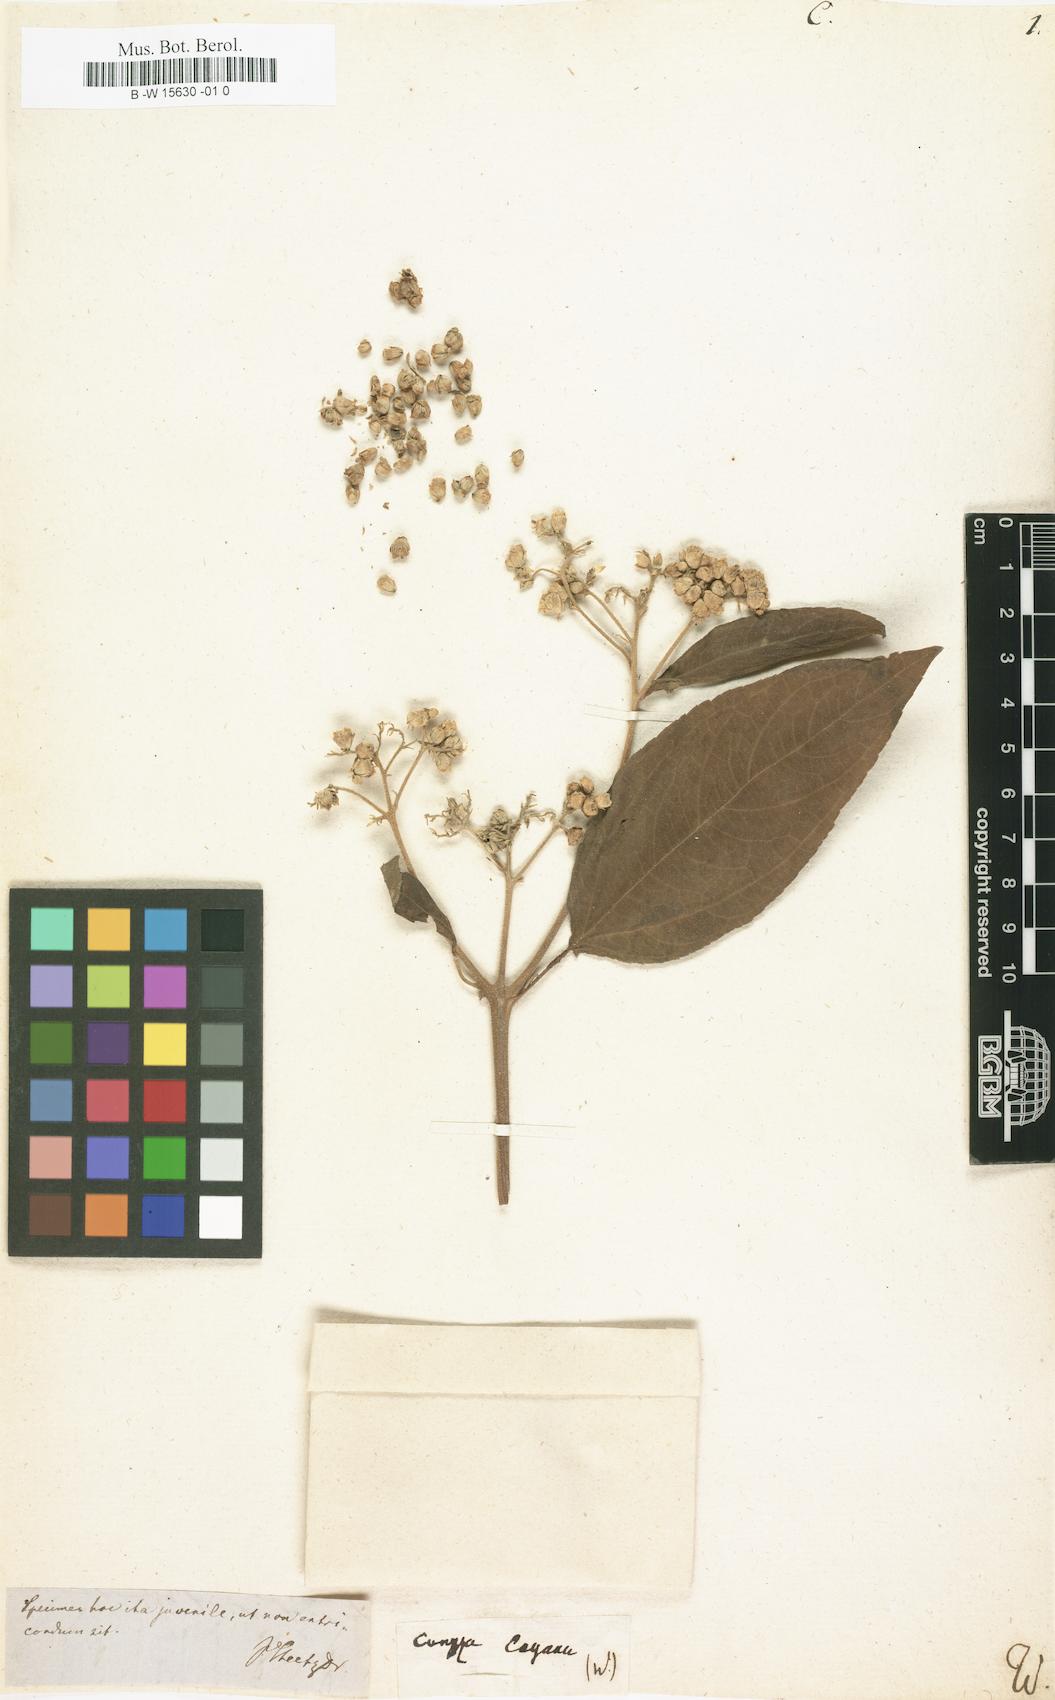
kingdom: Plantae
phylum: Tracheophyta
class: Magnoliopsida
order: Asterales
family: Asteraceae
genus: Conyza
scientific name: Conyza
